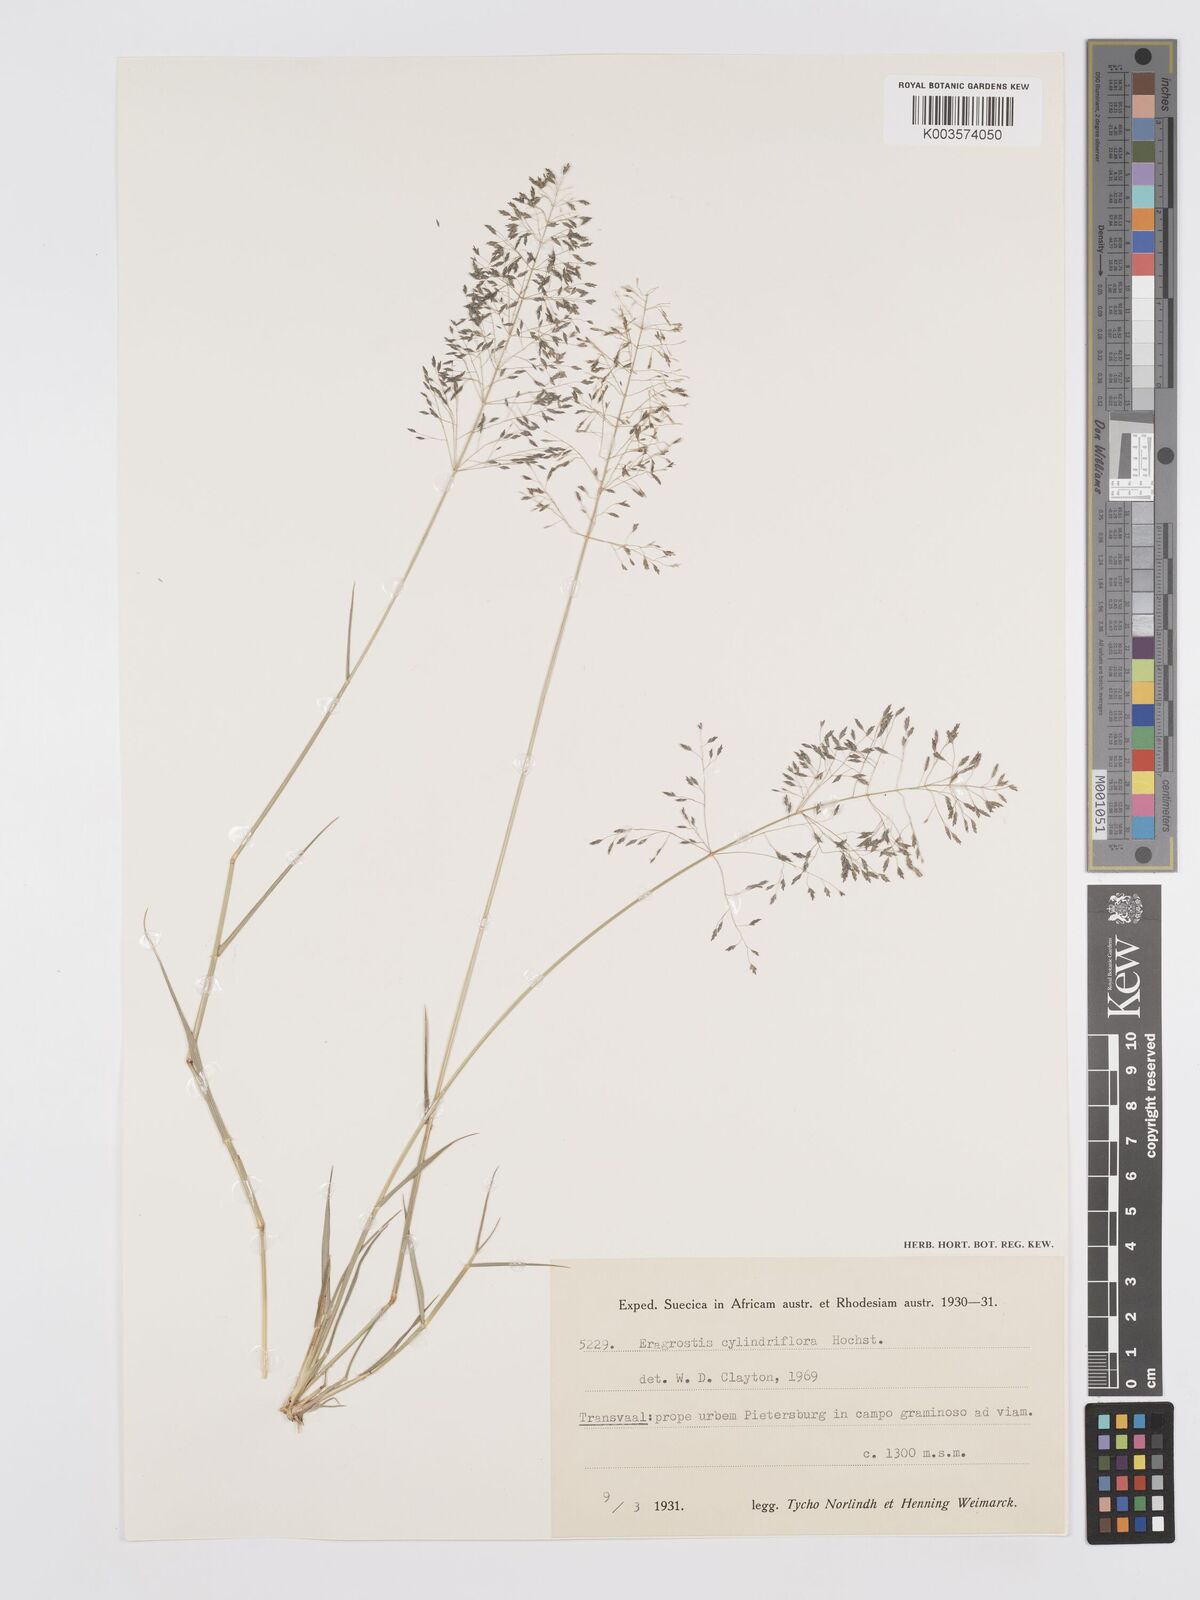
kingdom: Plantae
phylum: Tracheophyta
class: Liliopsida
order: Poales
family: Poaceae
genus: Eragrostis
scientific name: Eragrostis cylindriflora
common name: Cylinderflower lovegrass
